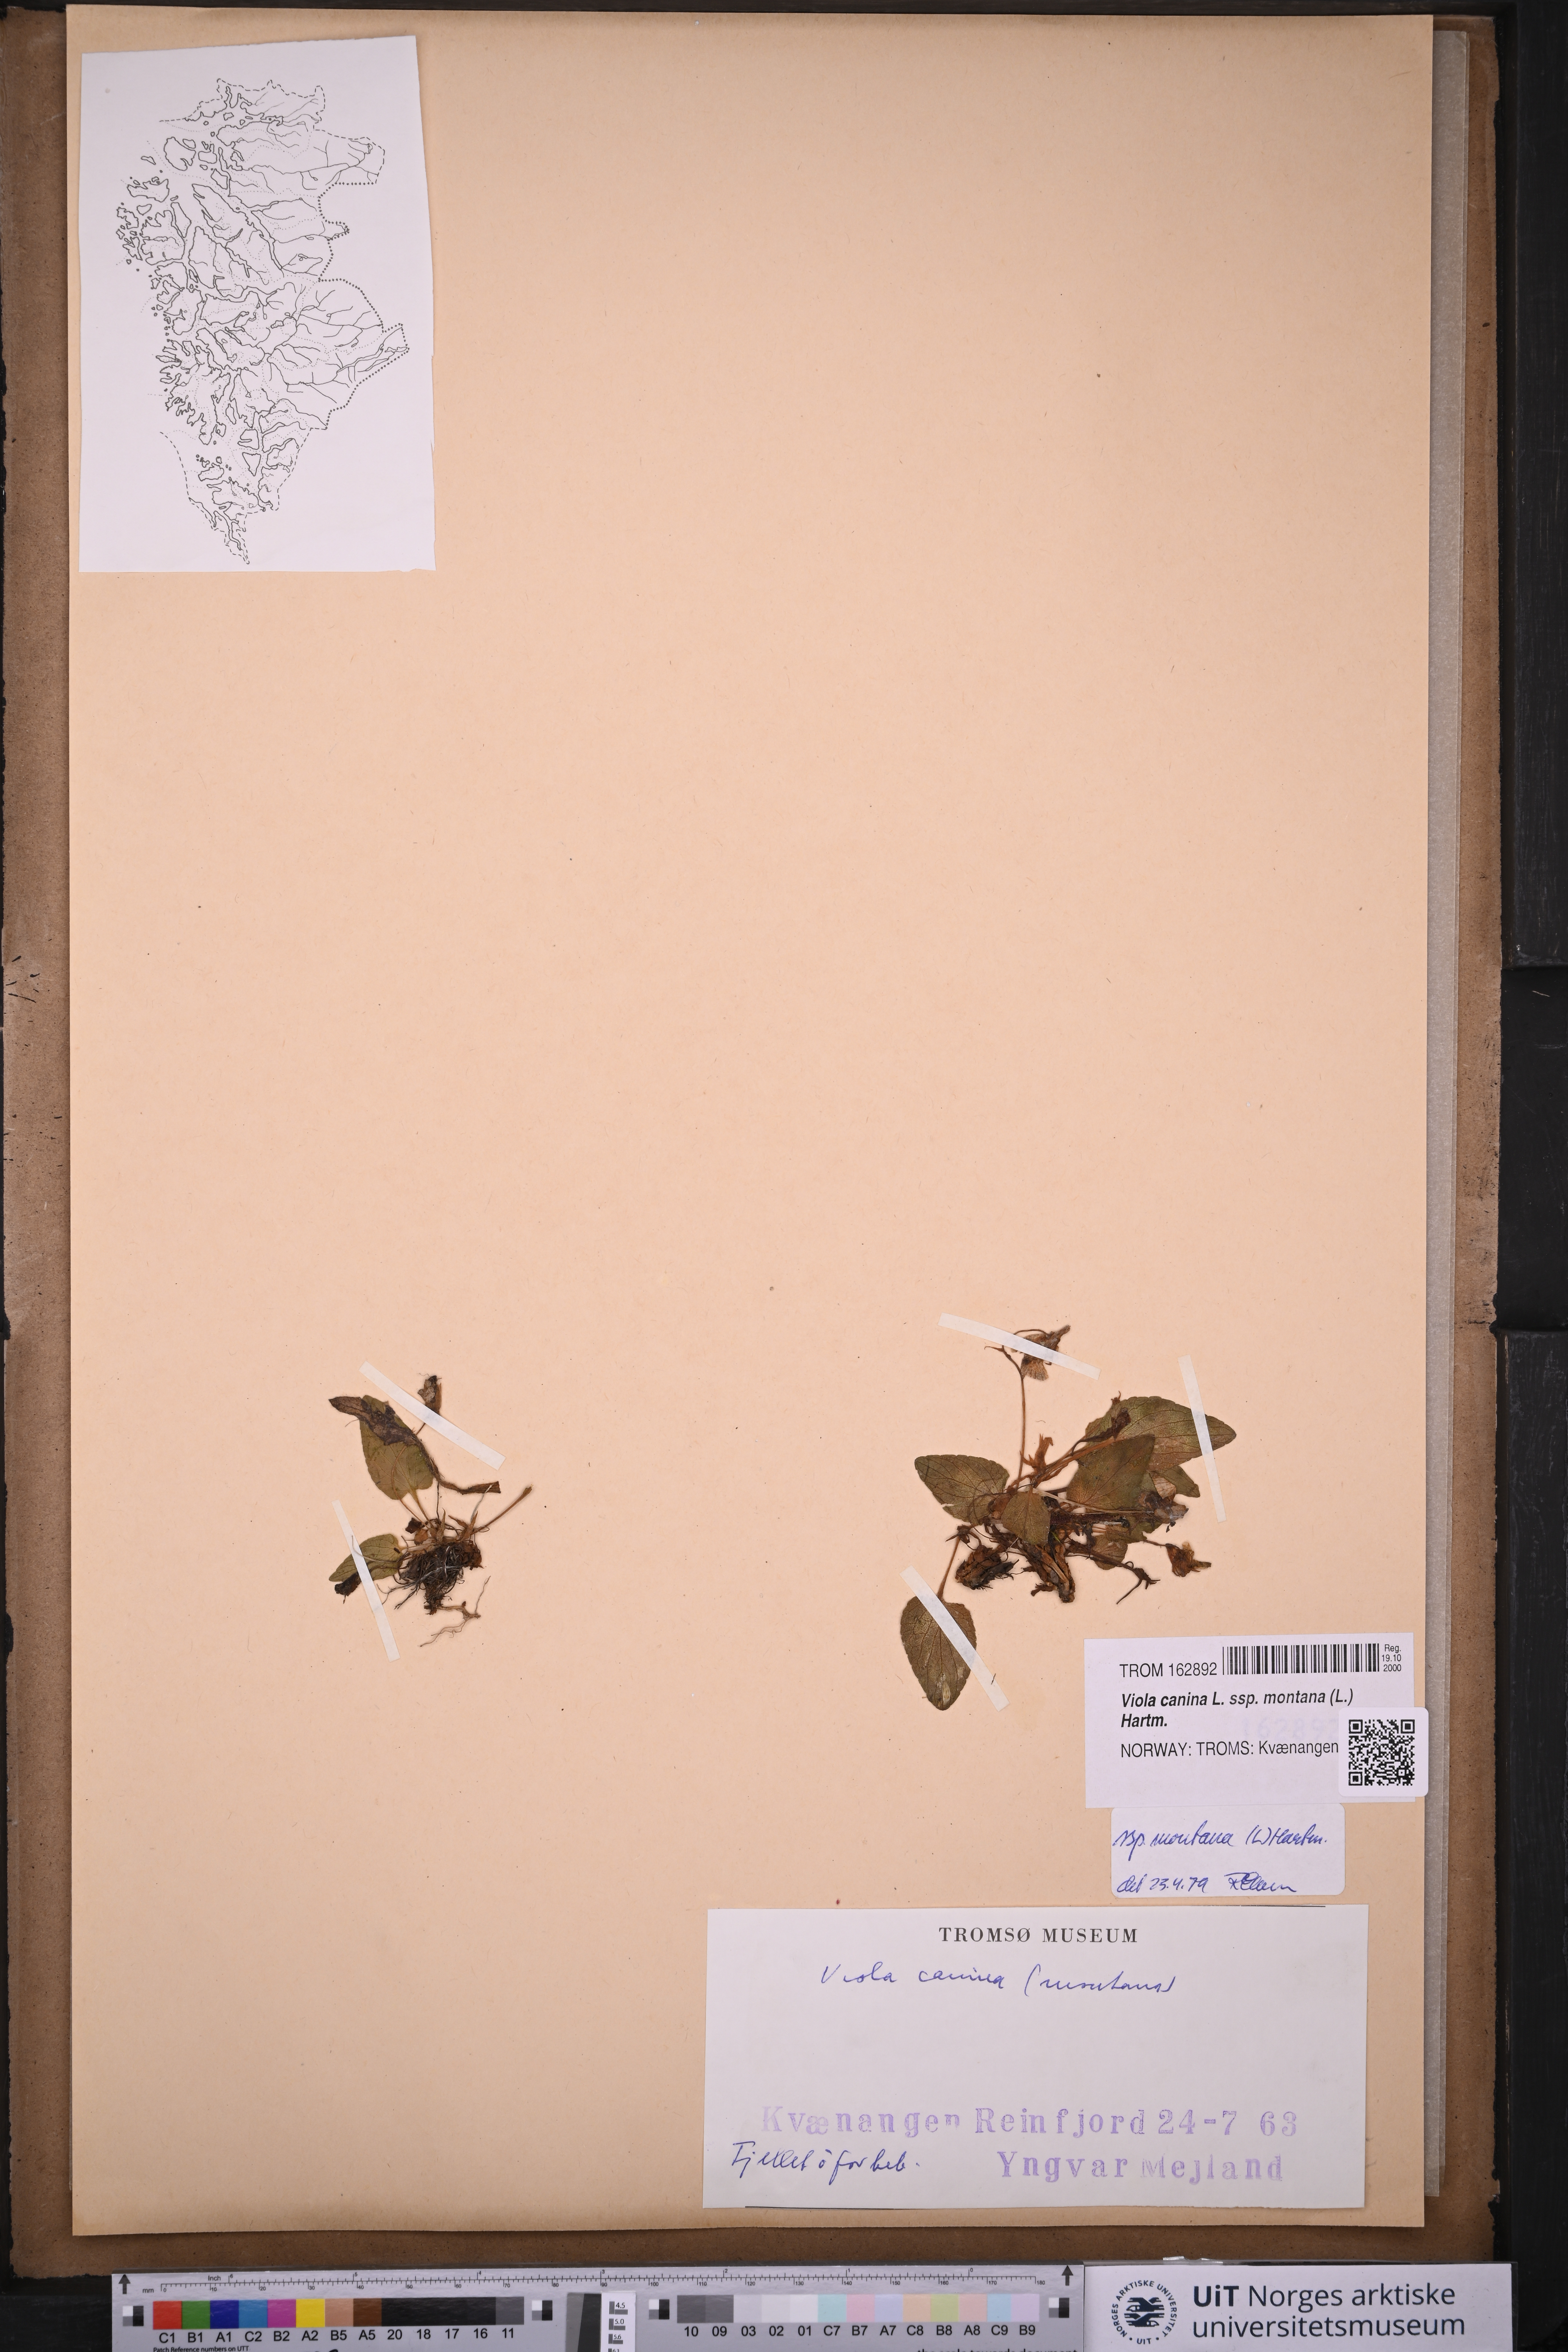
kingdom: Plantae
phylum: Tracheophyta
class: Magnoliopsida
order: Malpighiales
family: Violaceae
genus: Viola
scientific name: Viola ruppii
